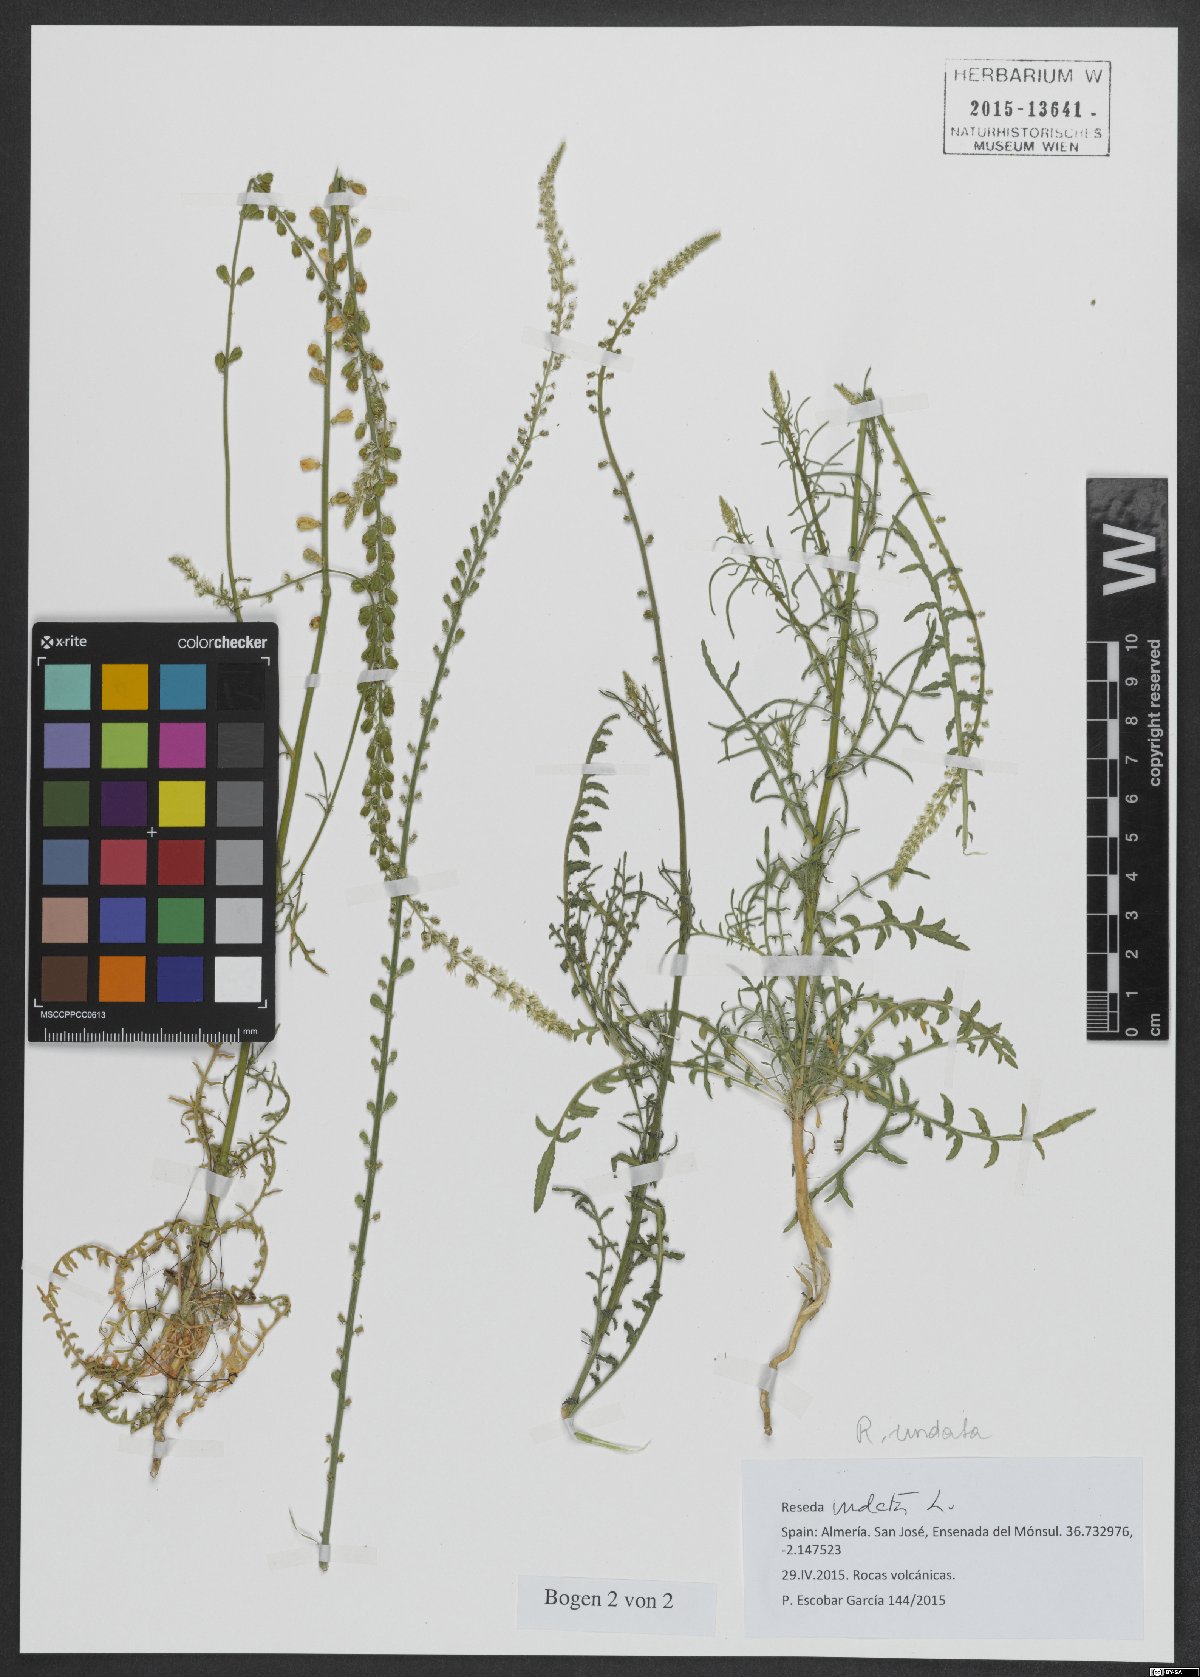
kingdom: Plantae
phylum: Tracheophyta
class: Magnoliopsida
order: Brassicales
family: Resedaceae
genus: Reseda
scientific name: Reseda undata
